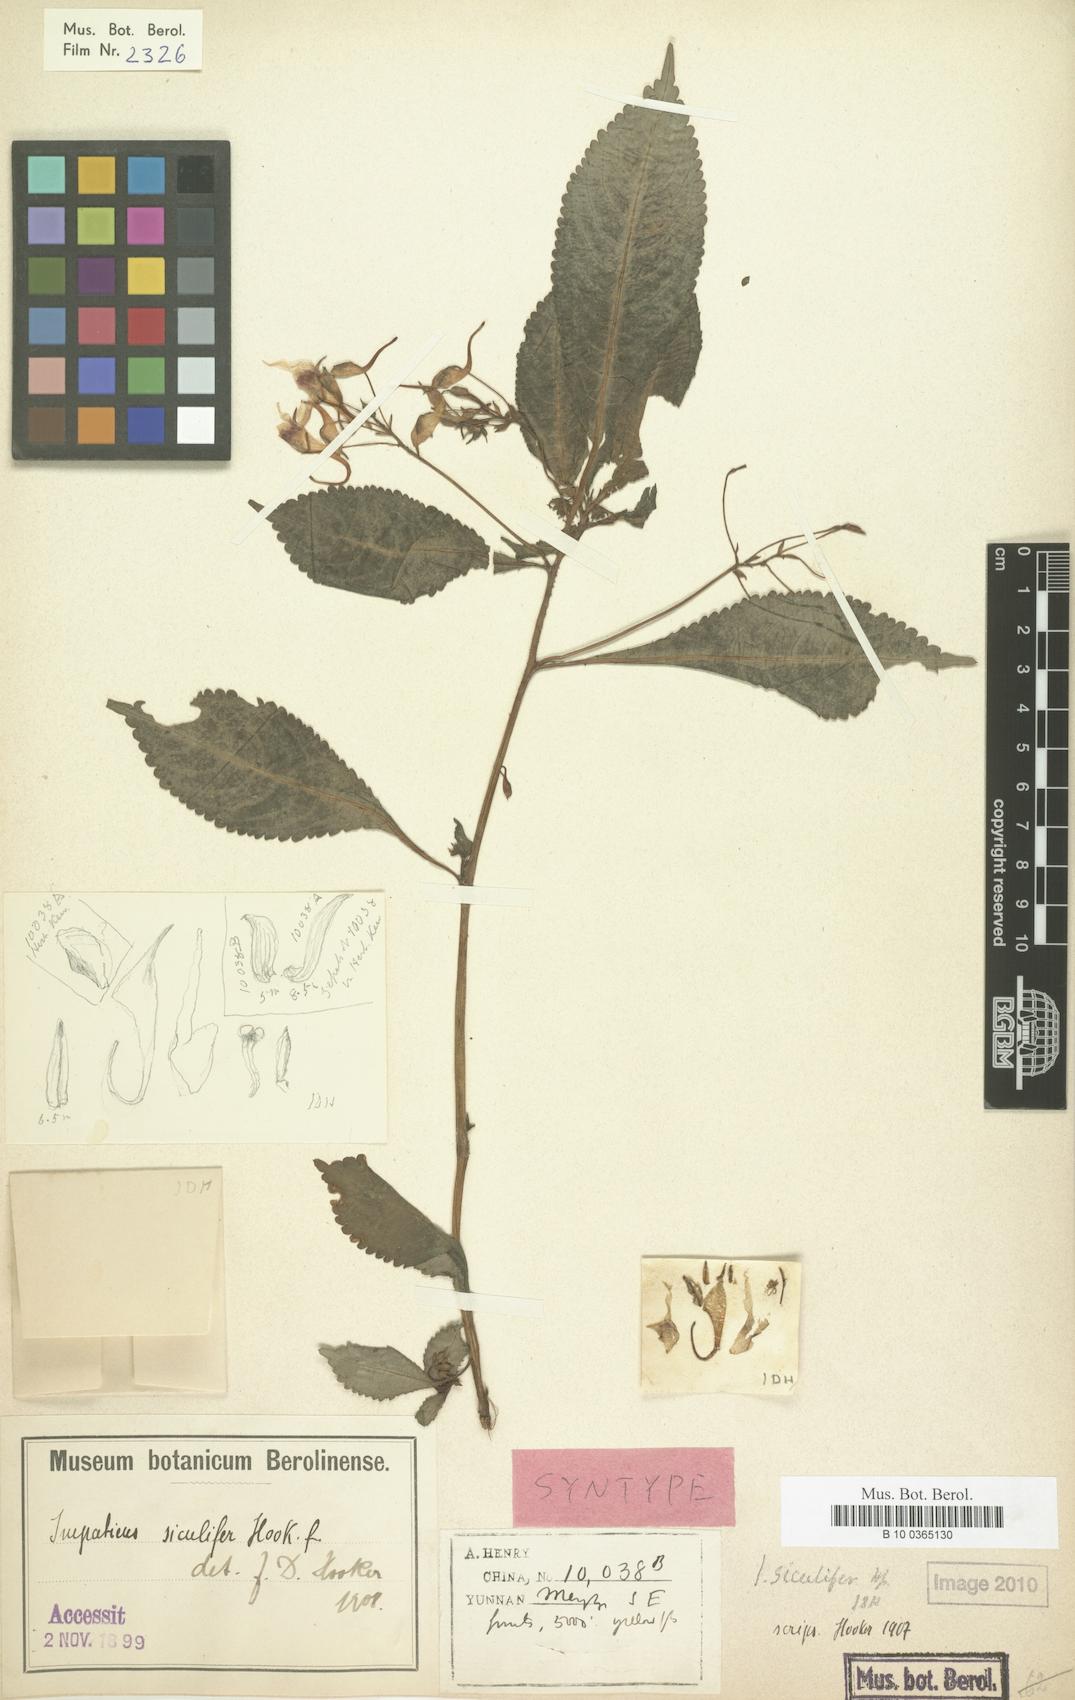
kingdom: Plantae
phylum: Tracheophyta
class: Magnoliopsida
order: Ericales
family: Balsaminaceae
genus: Impatiens
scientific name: Impatiens siculifer
